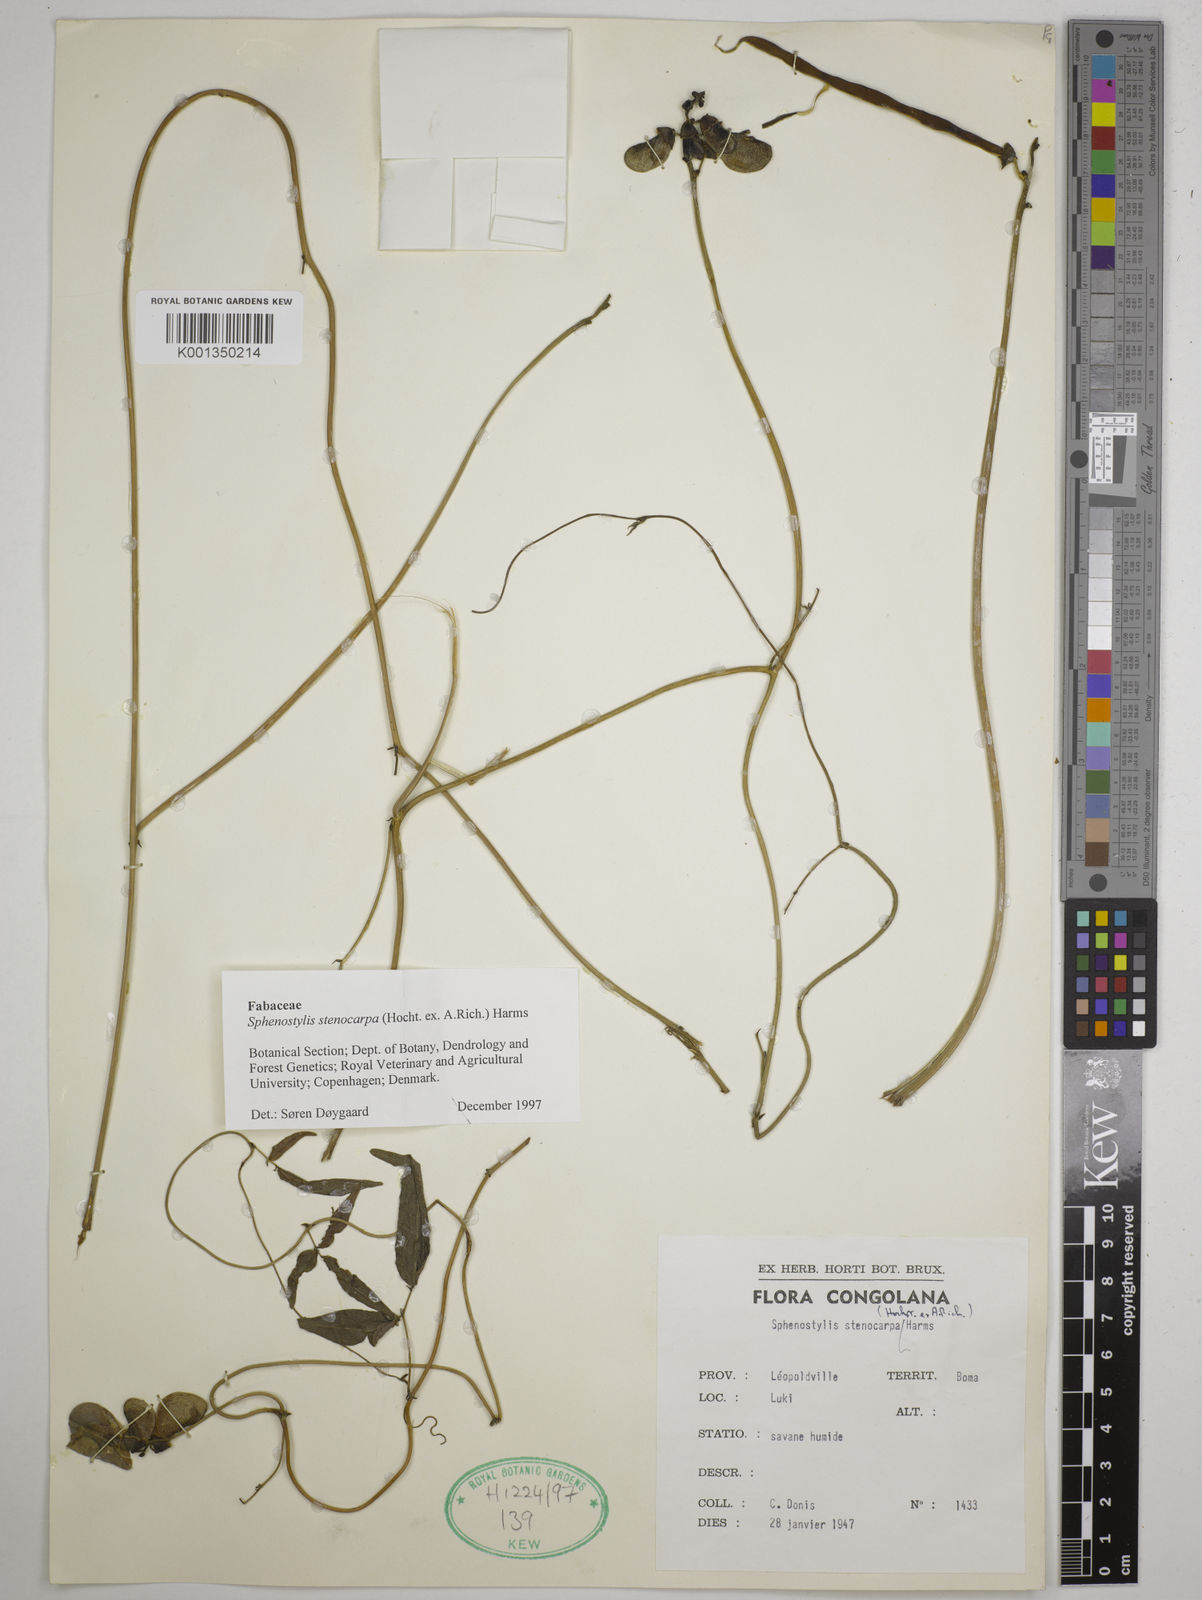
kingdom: Plantae
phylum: Tracheophyta
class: Magnoliopsida
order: Fabales
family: Fabaceae
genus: Sphenostylis
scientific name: Sphenostylis stenocarpa
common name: Yam-pea
